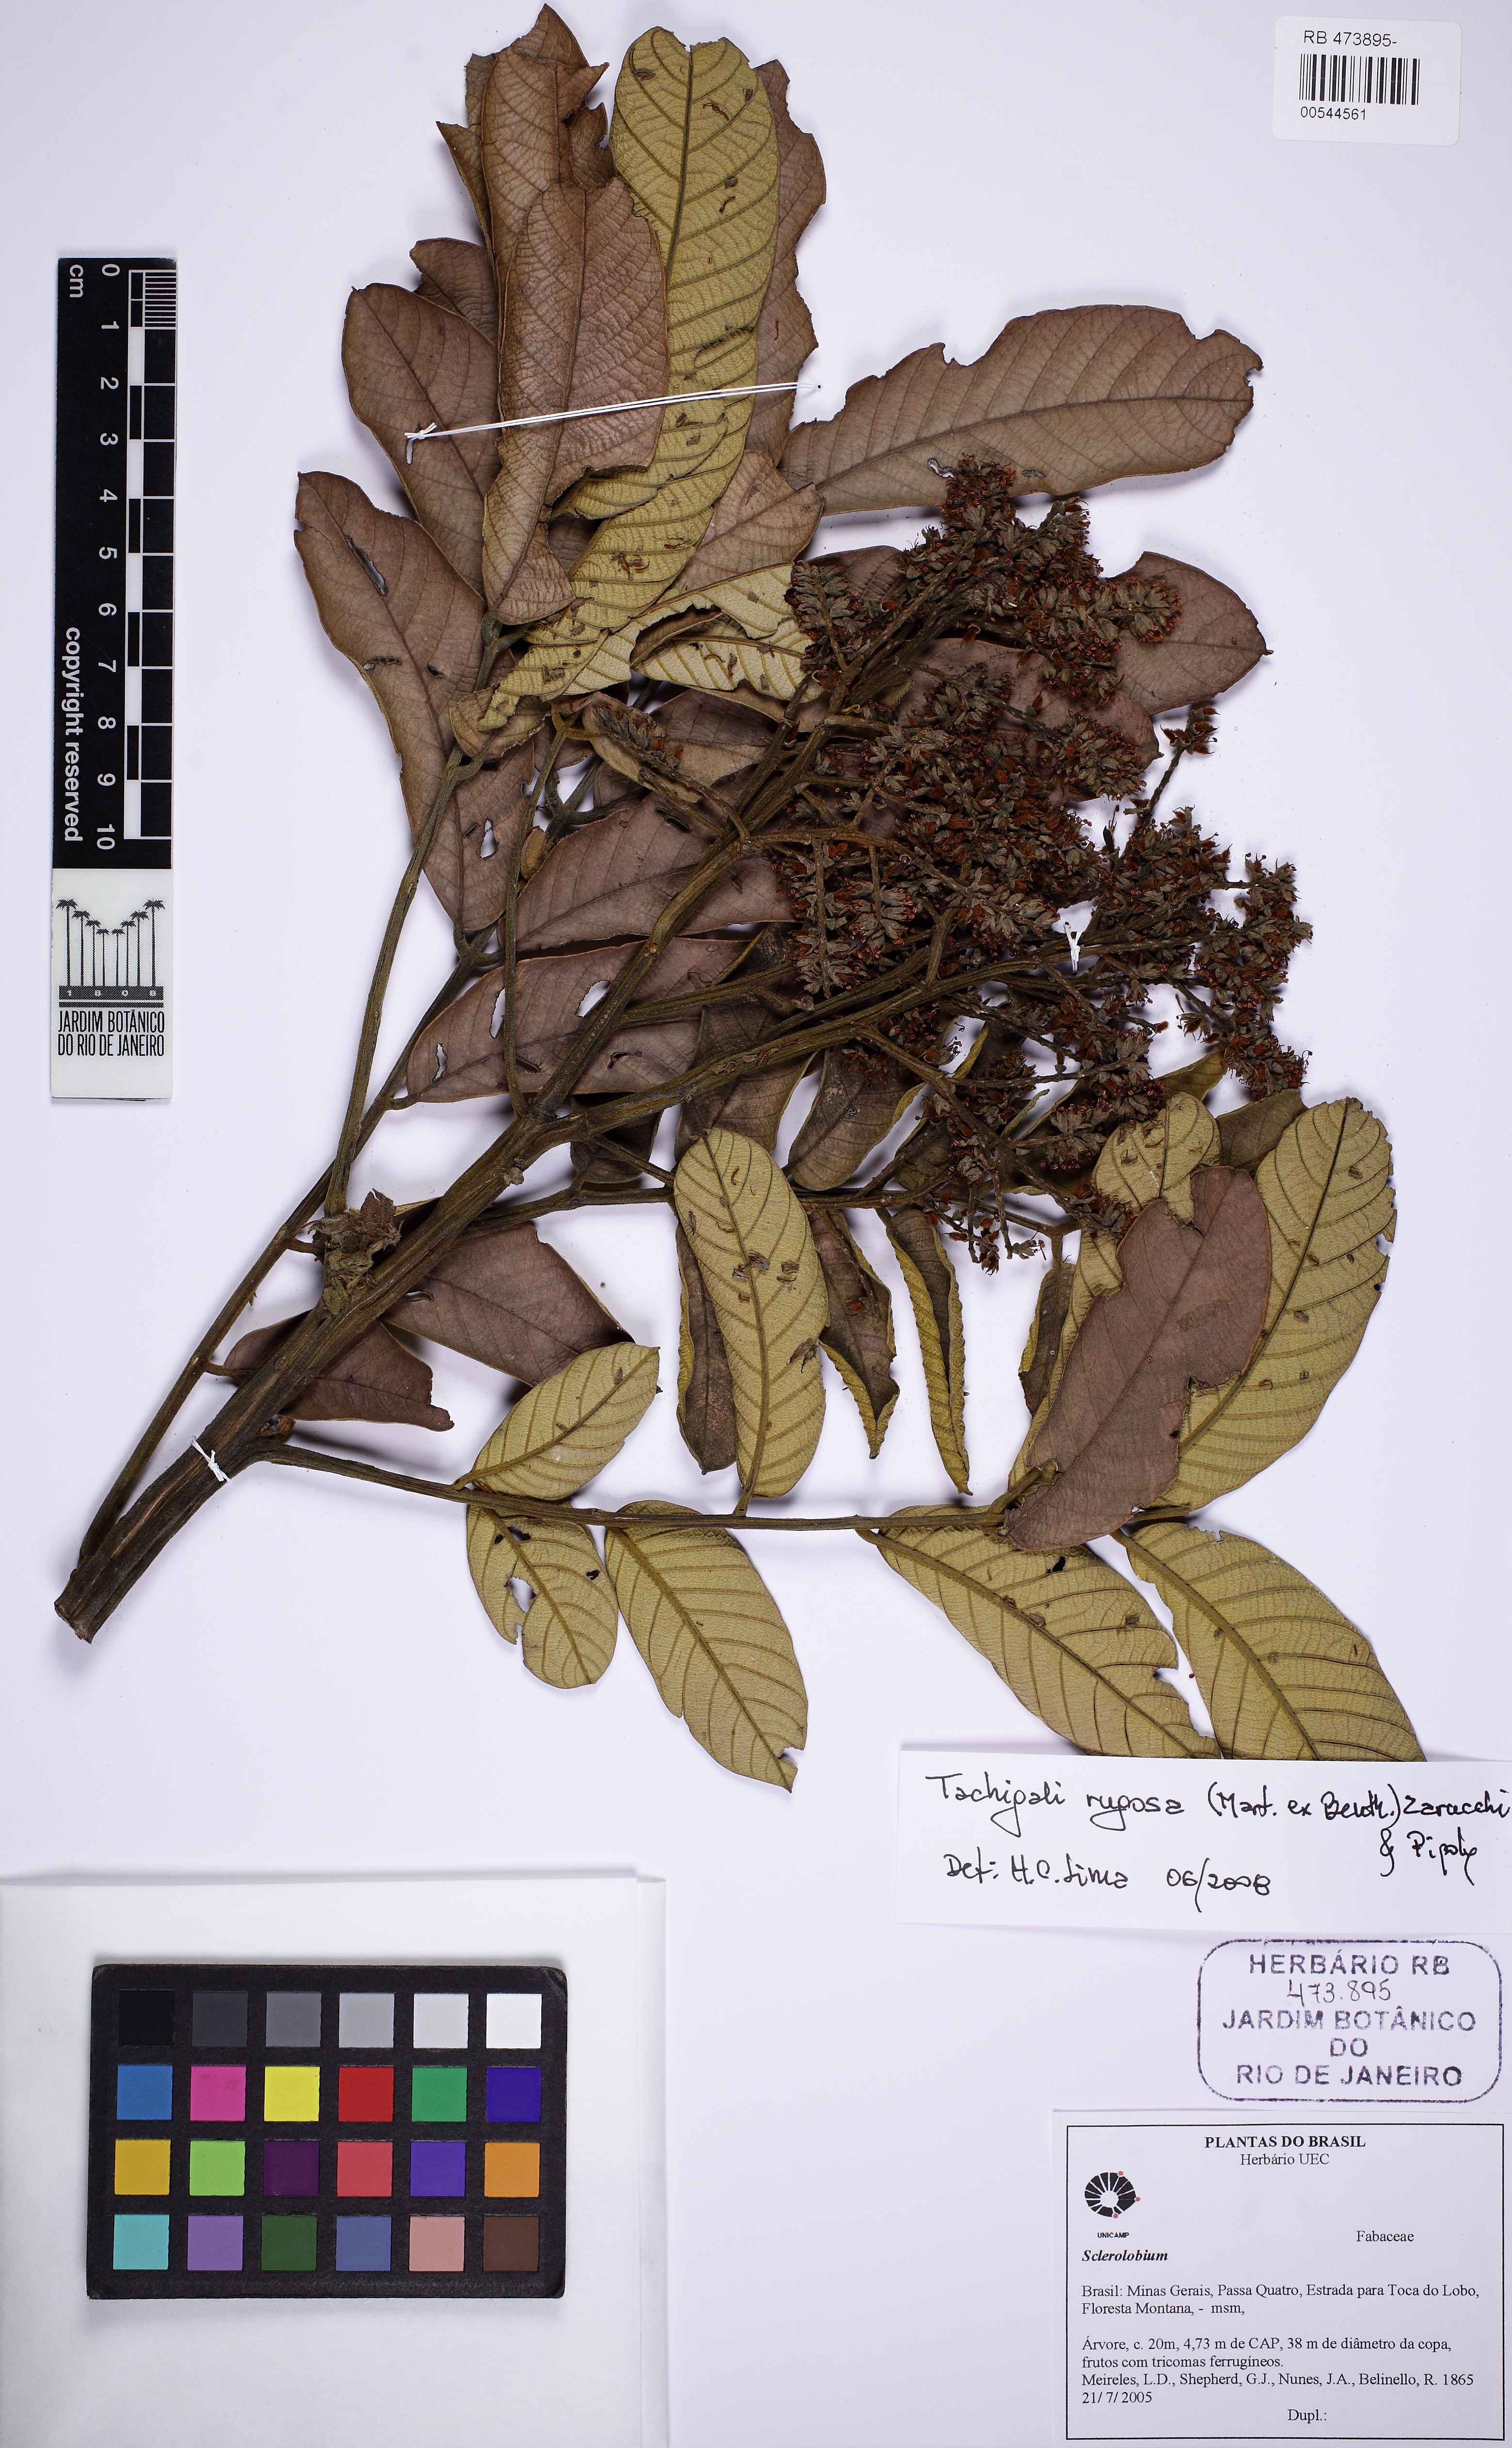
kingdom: Plantae
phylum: Tracheophyta
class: Magnoliopsida
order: Fabales
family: Fabaceae
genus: Tachigali
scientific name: Tachigali rugosa
